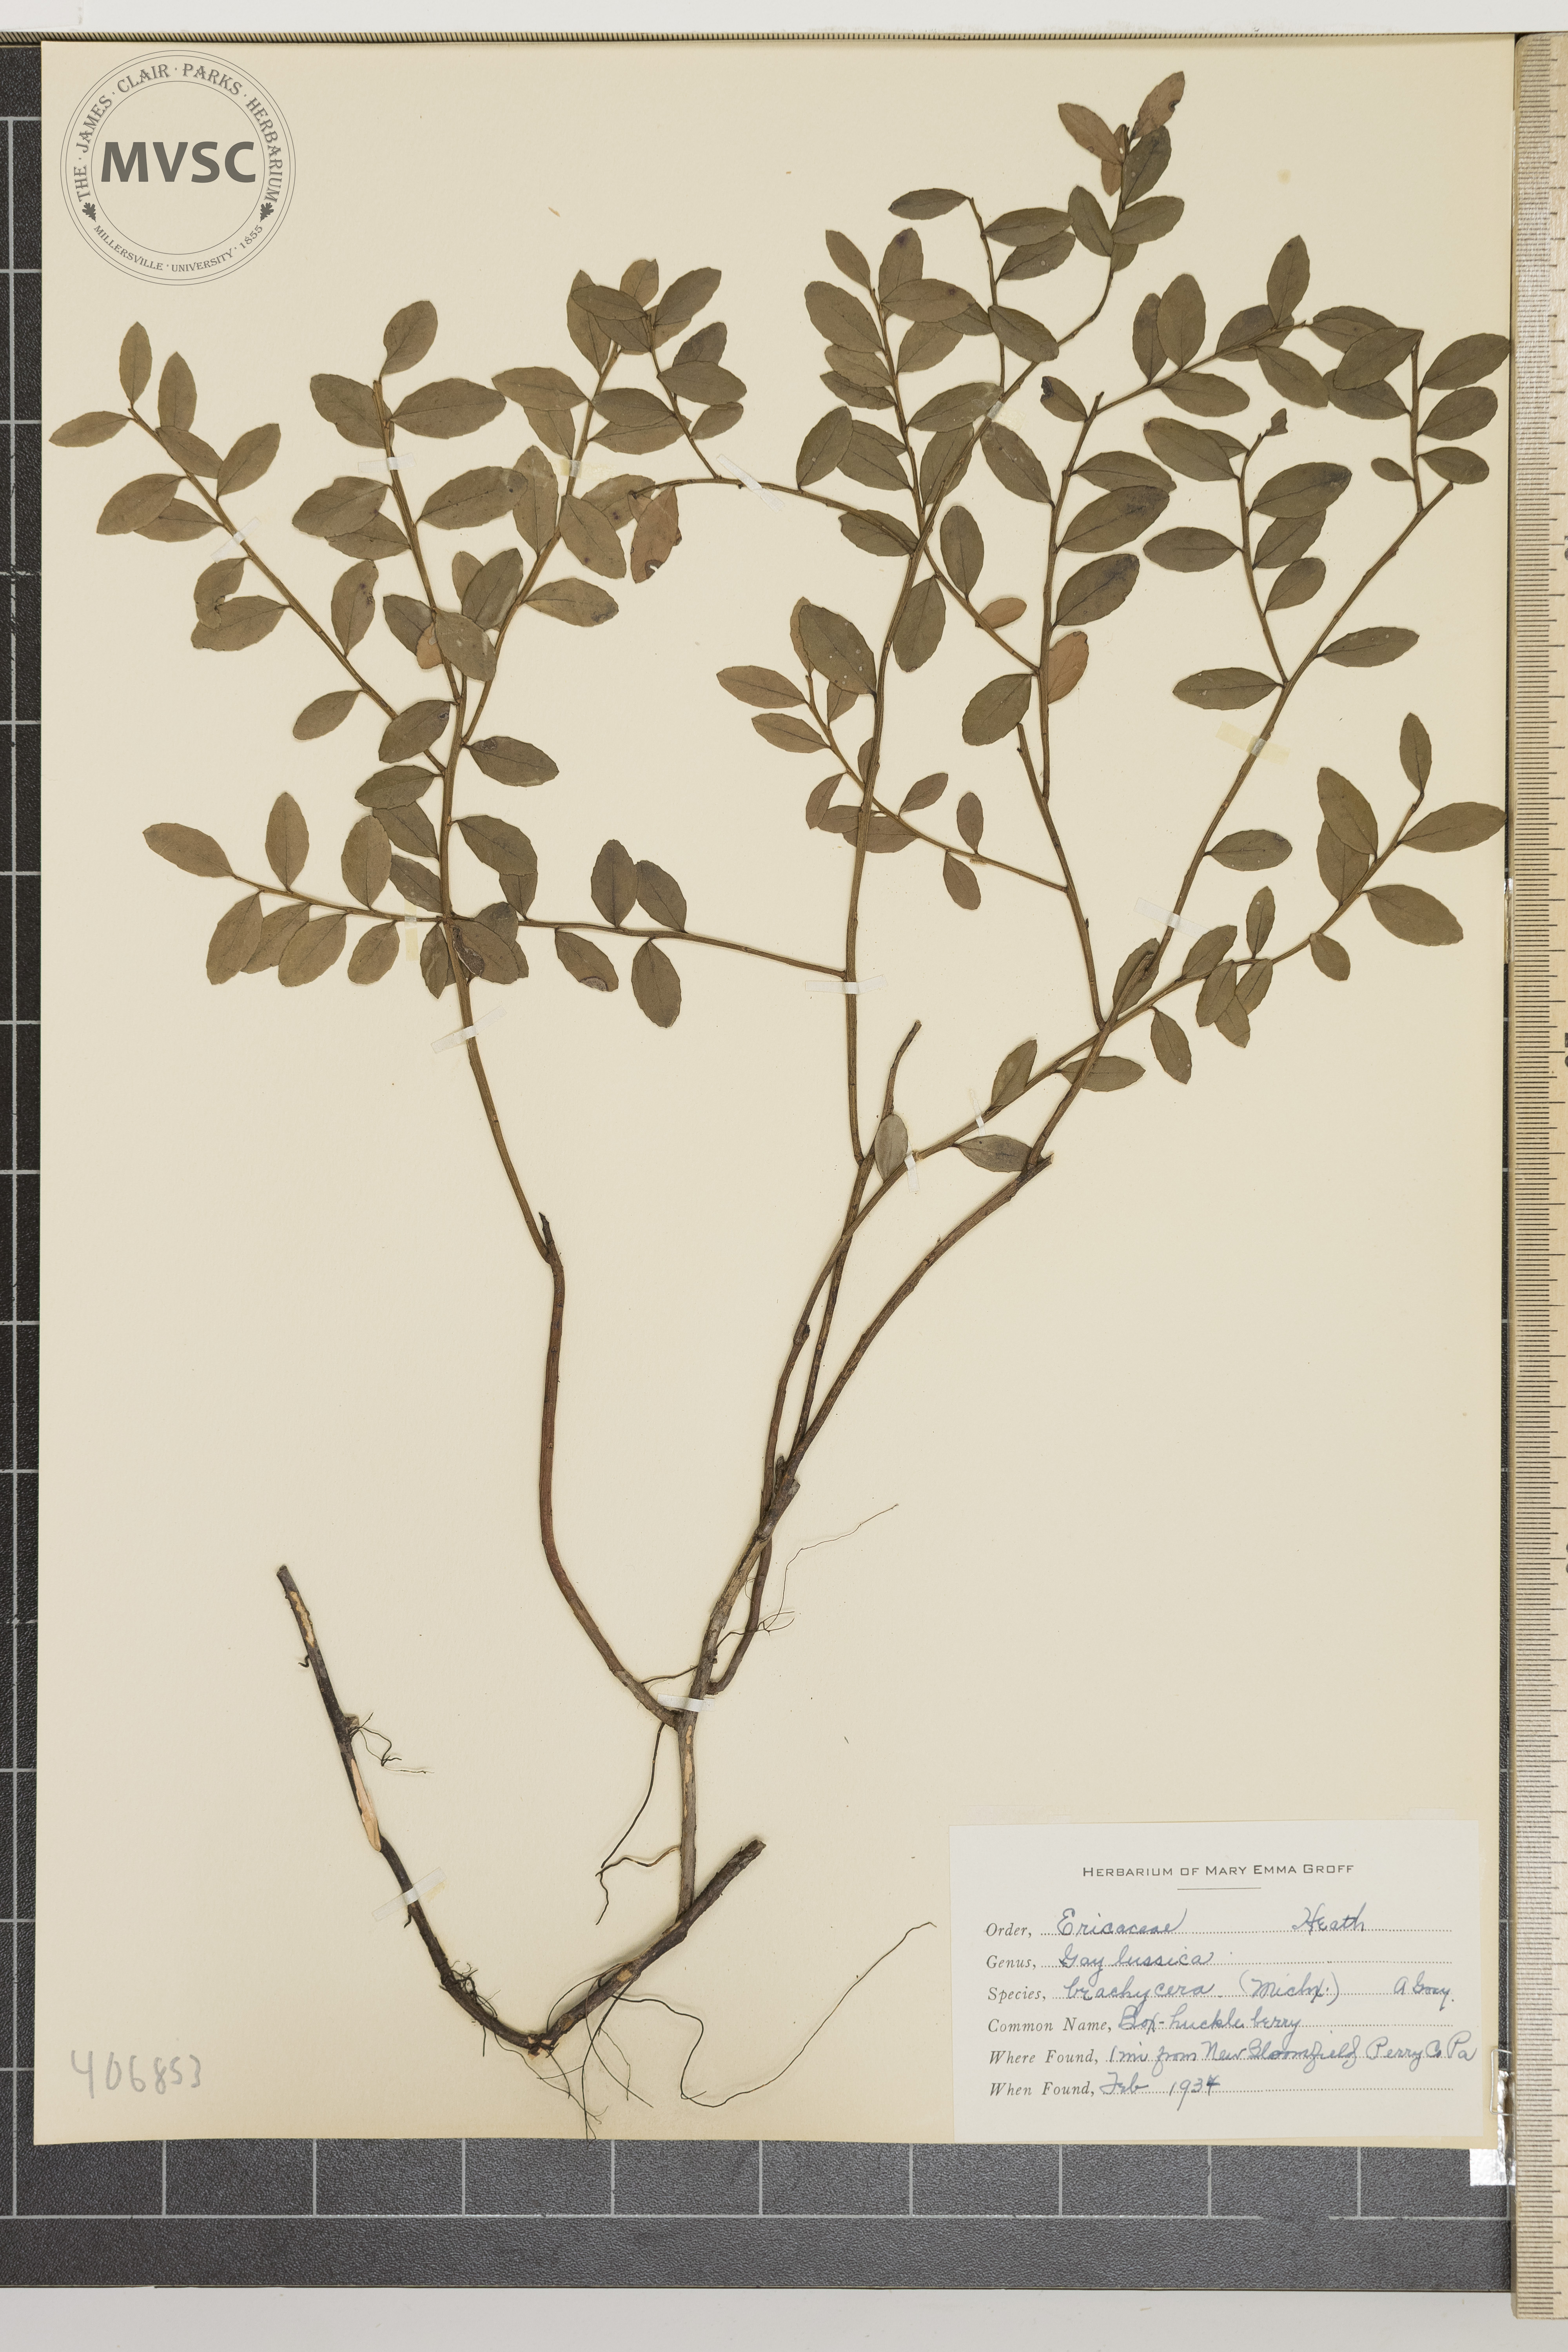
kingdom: Plantae
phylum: Tracheophyta
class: Magnoliopsida
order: Ericales
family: Ericaceae
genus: Gaylussacia
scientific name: Gaylussacia brachycera
